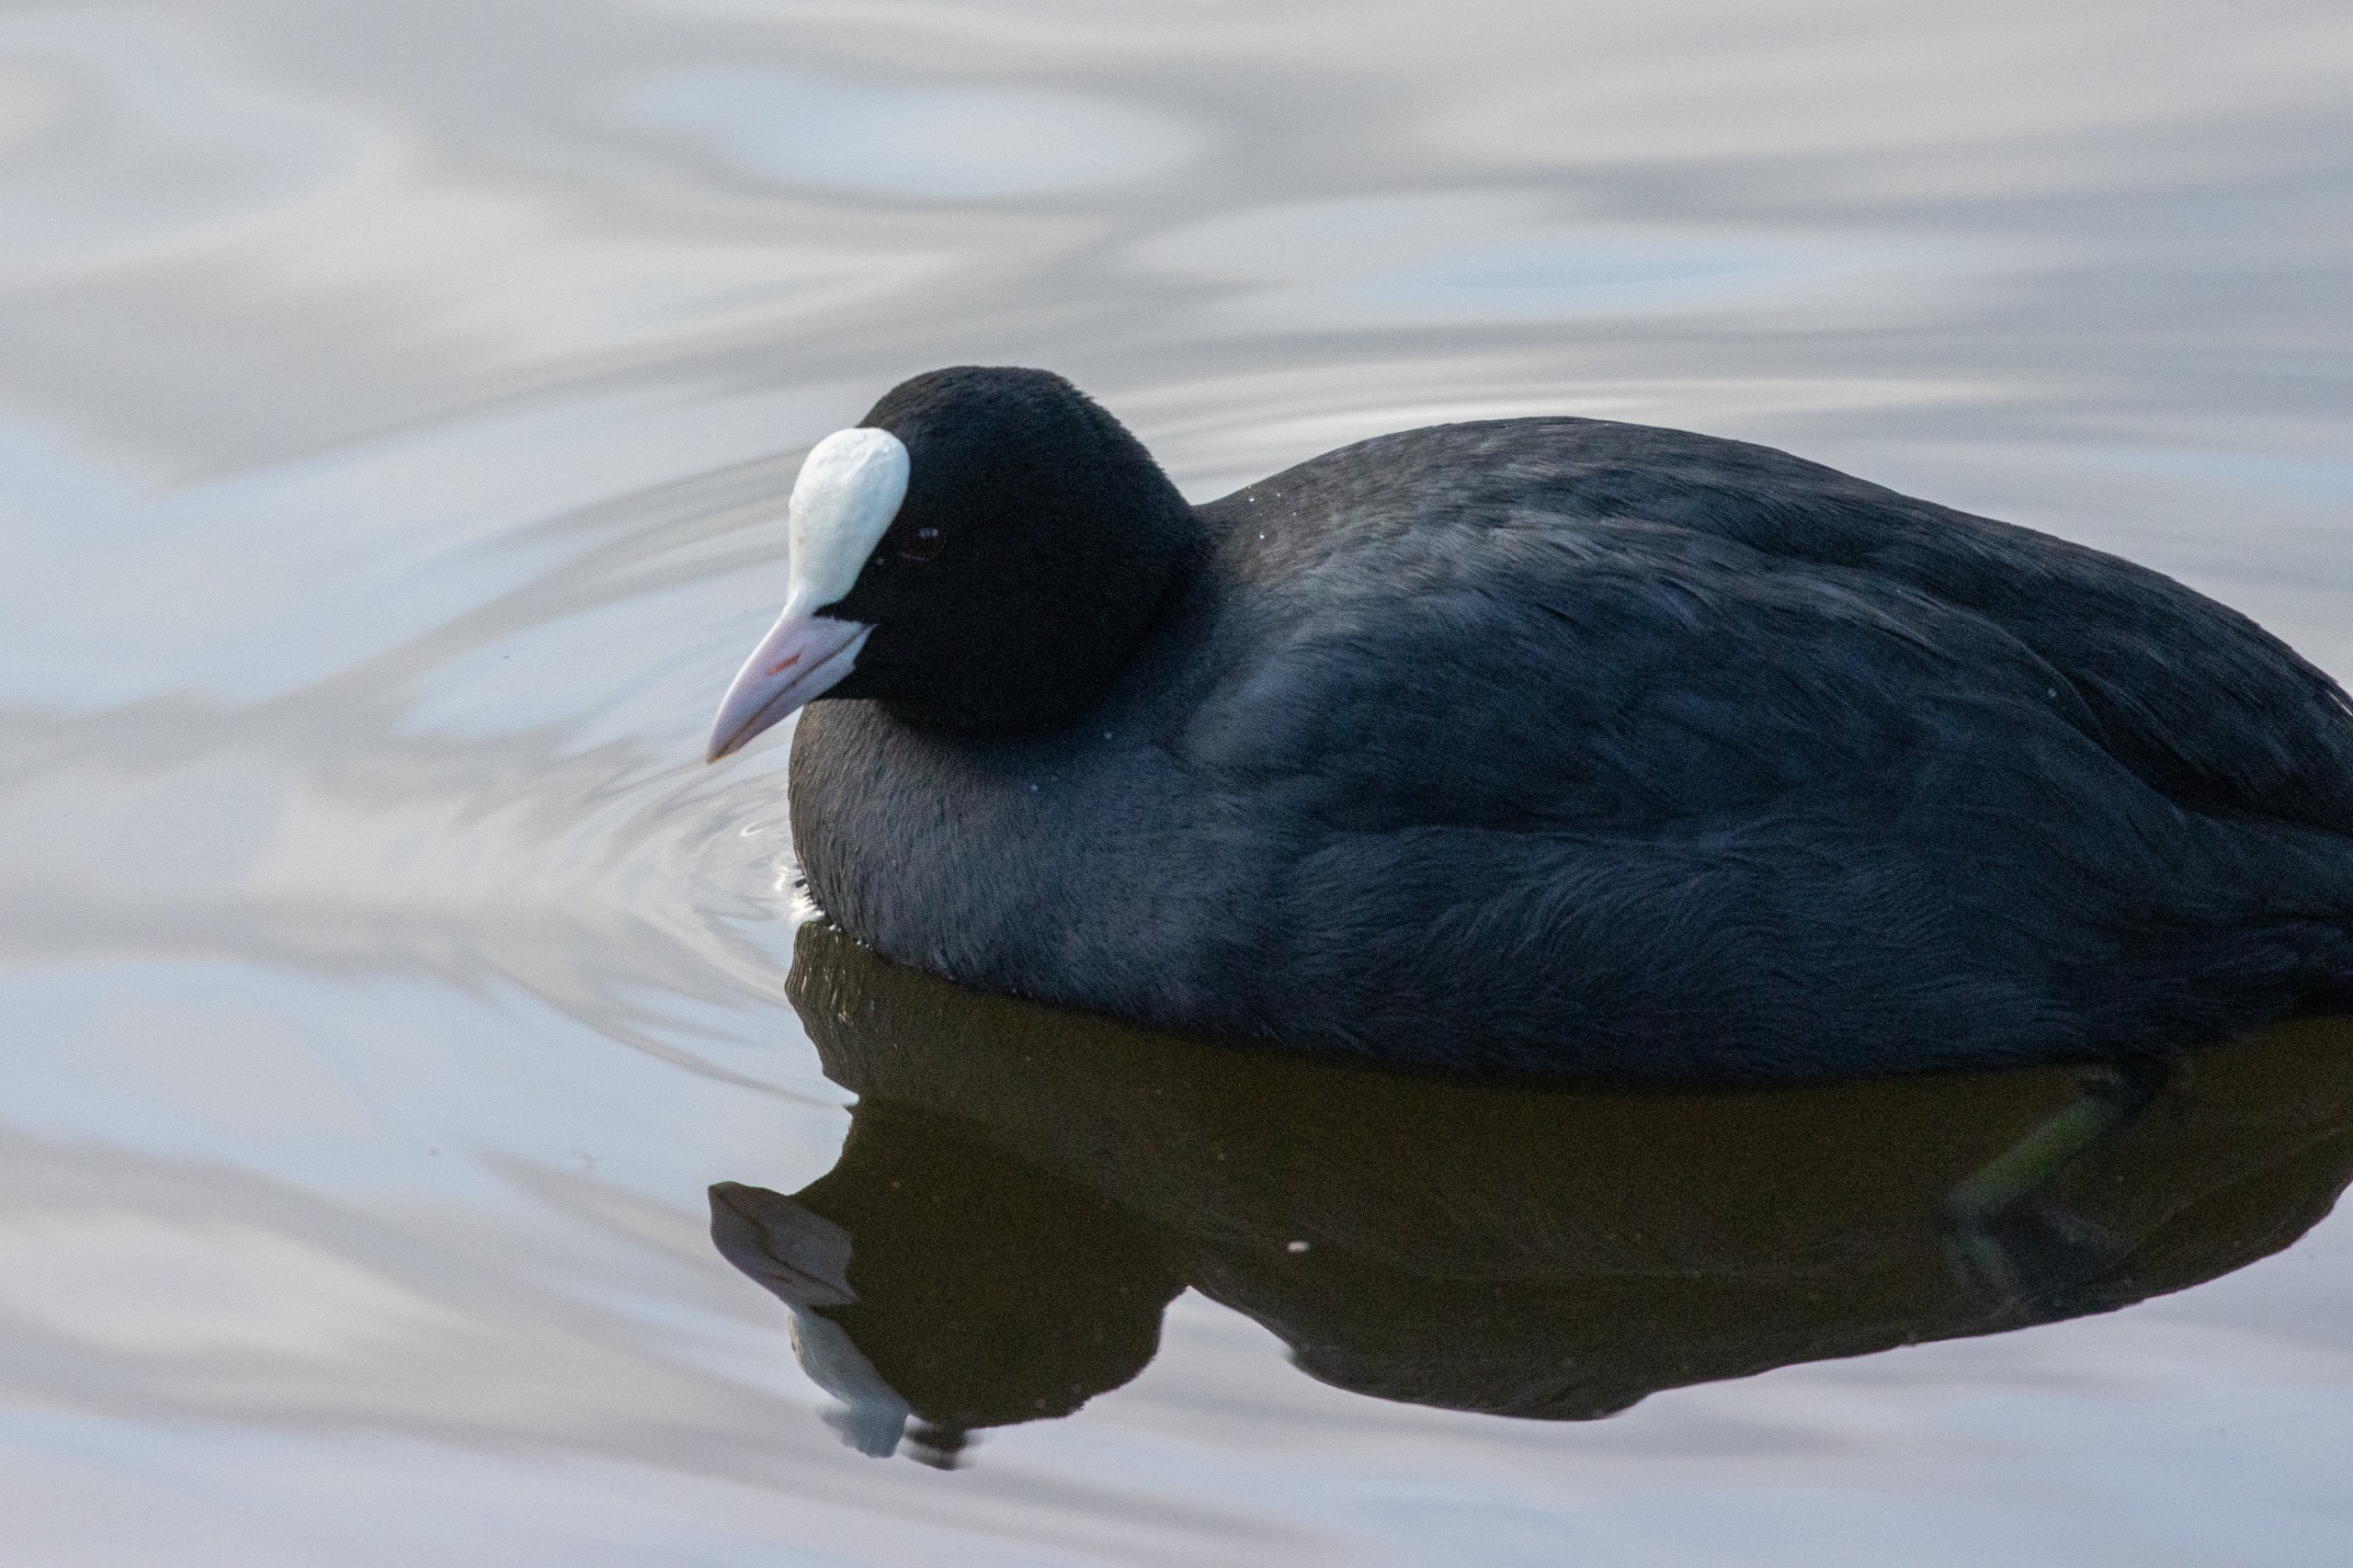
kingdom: Animalia
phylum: Chordata
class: Aves
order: Gruiformes
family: Rallidae
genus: Fulica
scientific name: Fulica atra
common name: Blishøne
